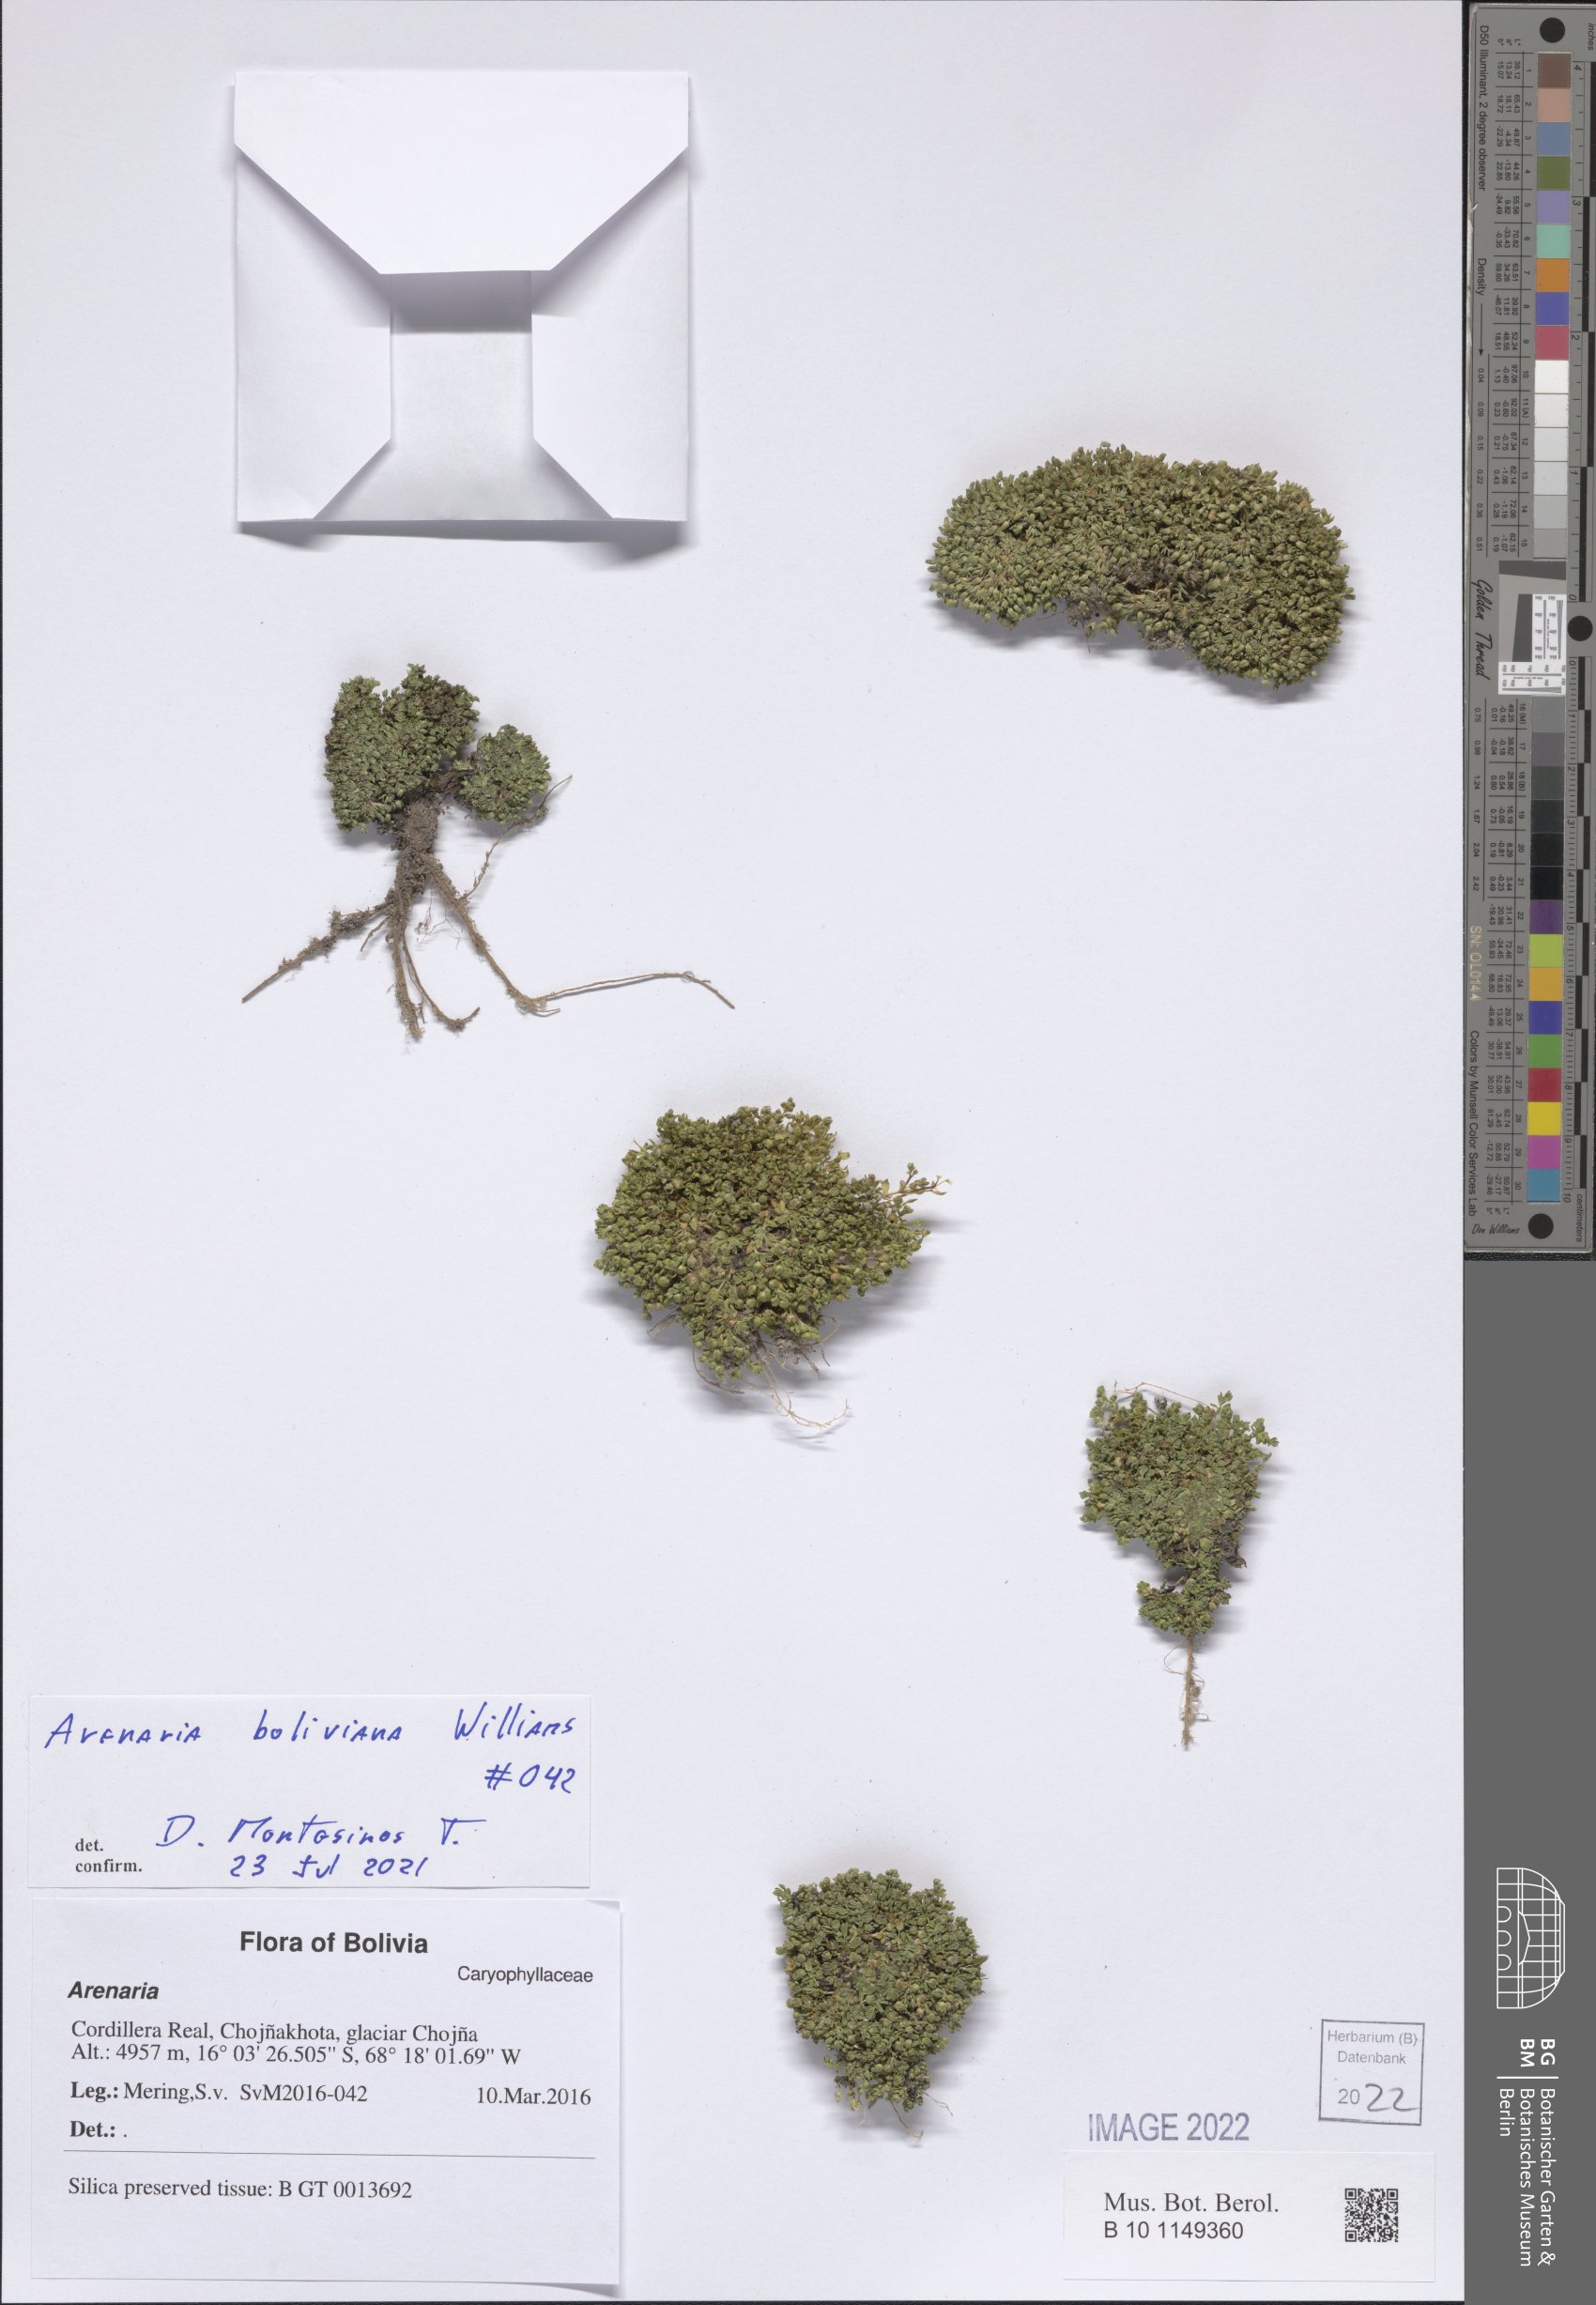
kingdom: Plantae
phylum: Tracheophyta
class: Magnoliopsida
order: Caryophyllales
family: Caryophyllaceae
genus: Arenaria
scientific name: Arenaria boliviana
